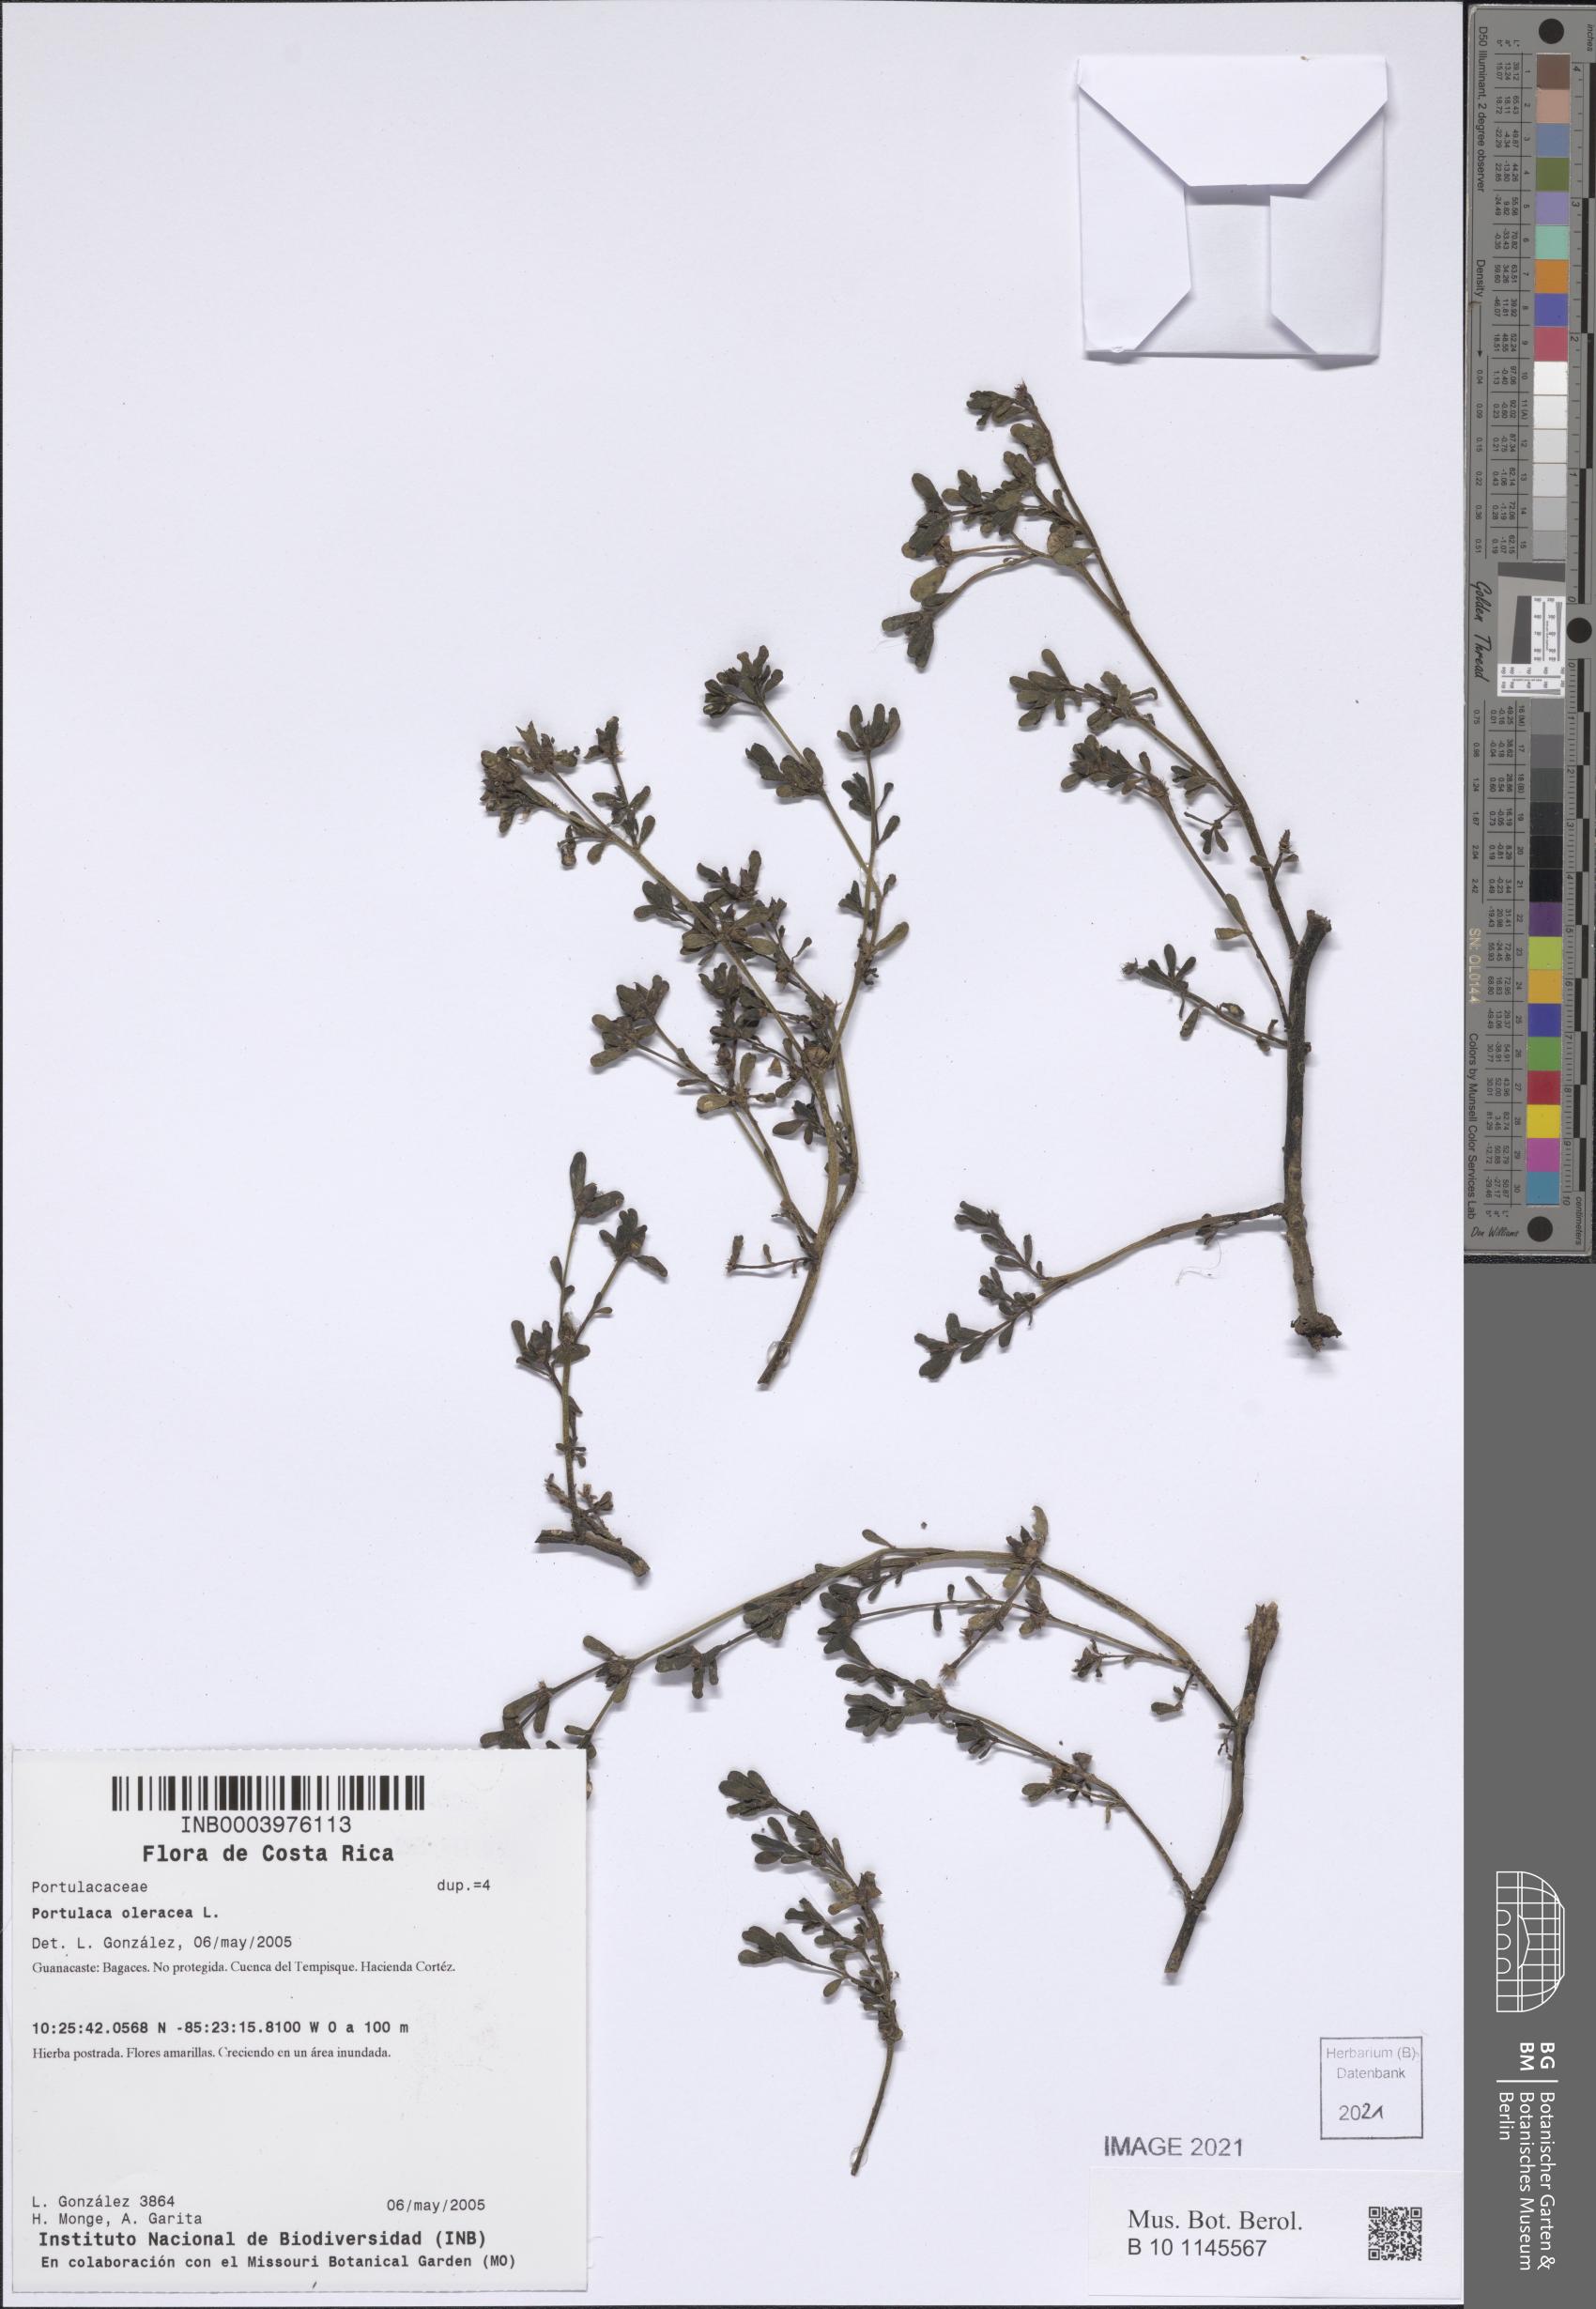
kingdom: Plantae
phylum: Tracheophyta
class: Magnoliopsida
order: Caryophyllales
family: Portulacaceae
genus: Portulaca
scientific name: Portulaca oleracea
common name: Common purslane
